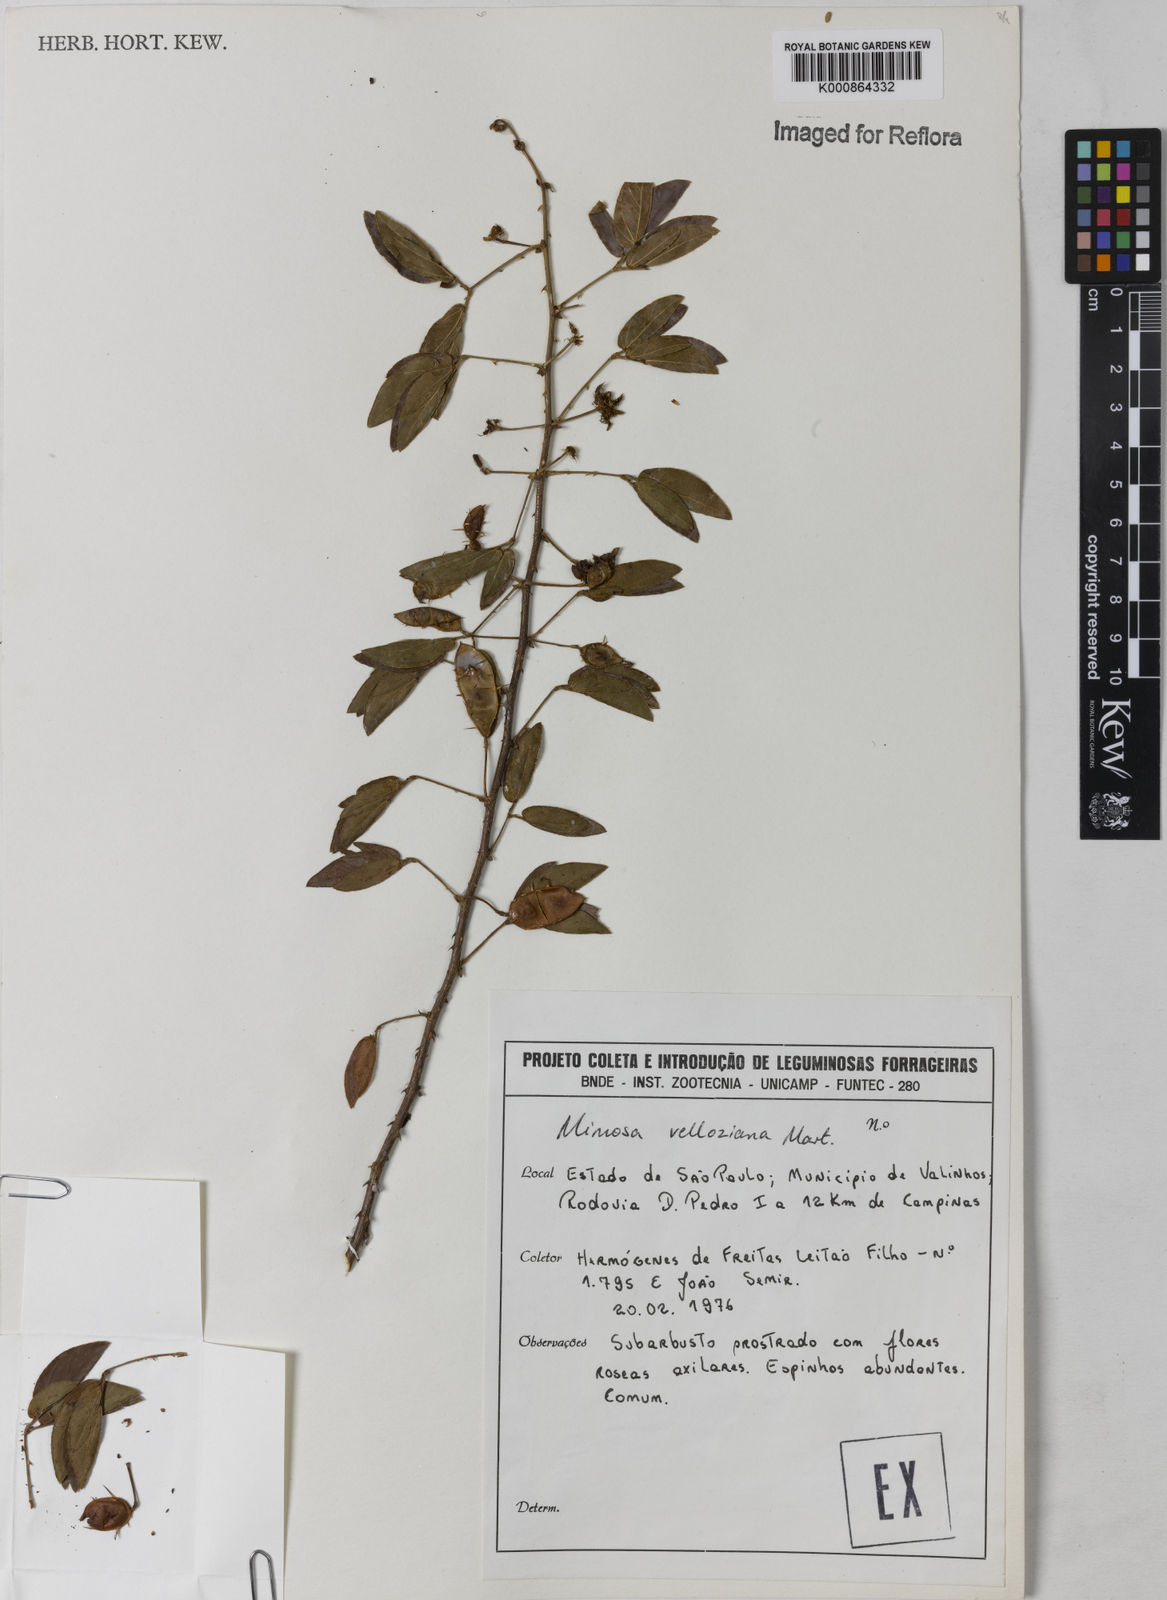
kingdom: Plantae
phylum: Tracheophyta
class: Magnoliopsida
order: Fabales
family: Fabaceae
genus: Mimosa
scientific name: Mimosa velloziana
